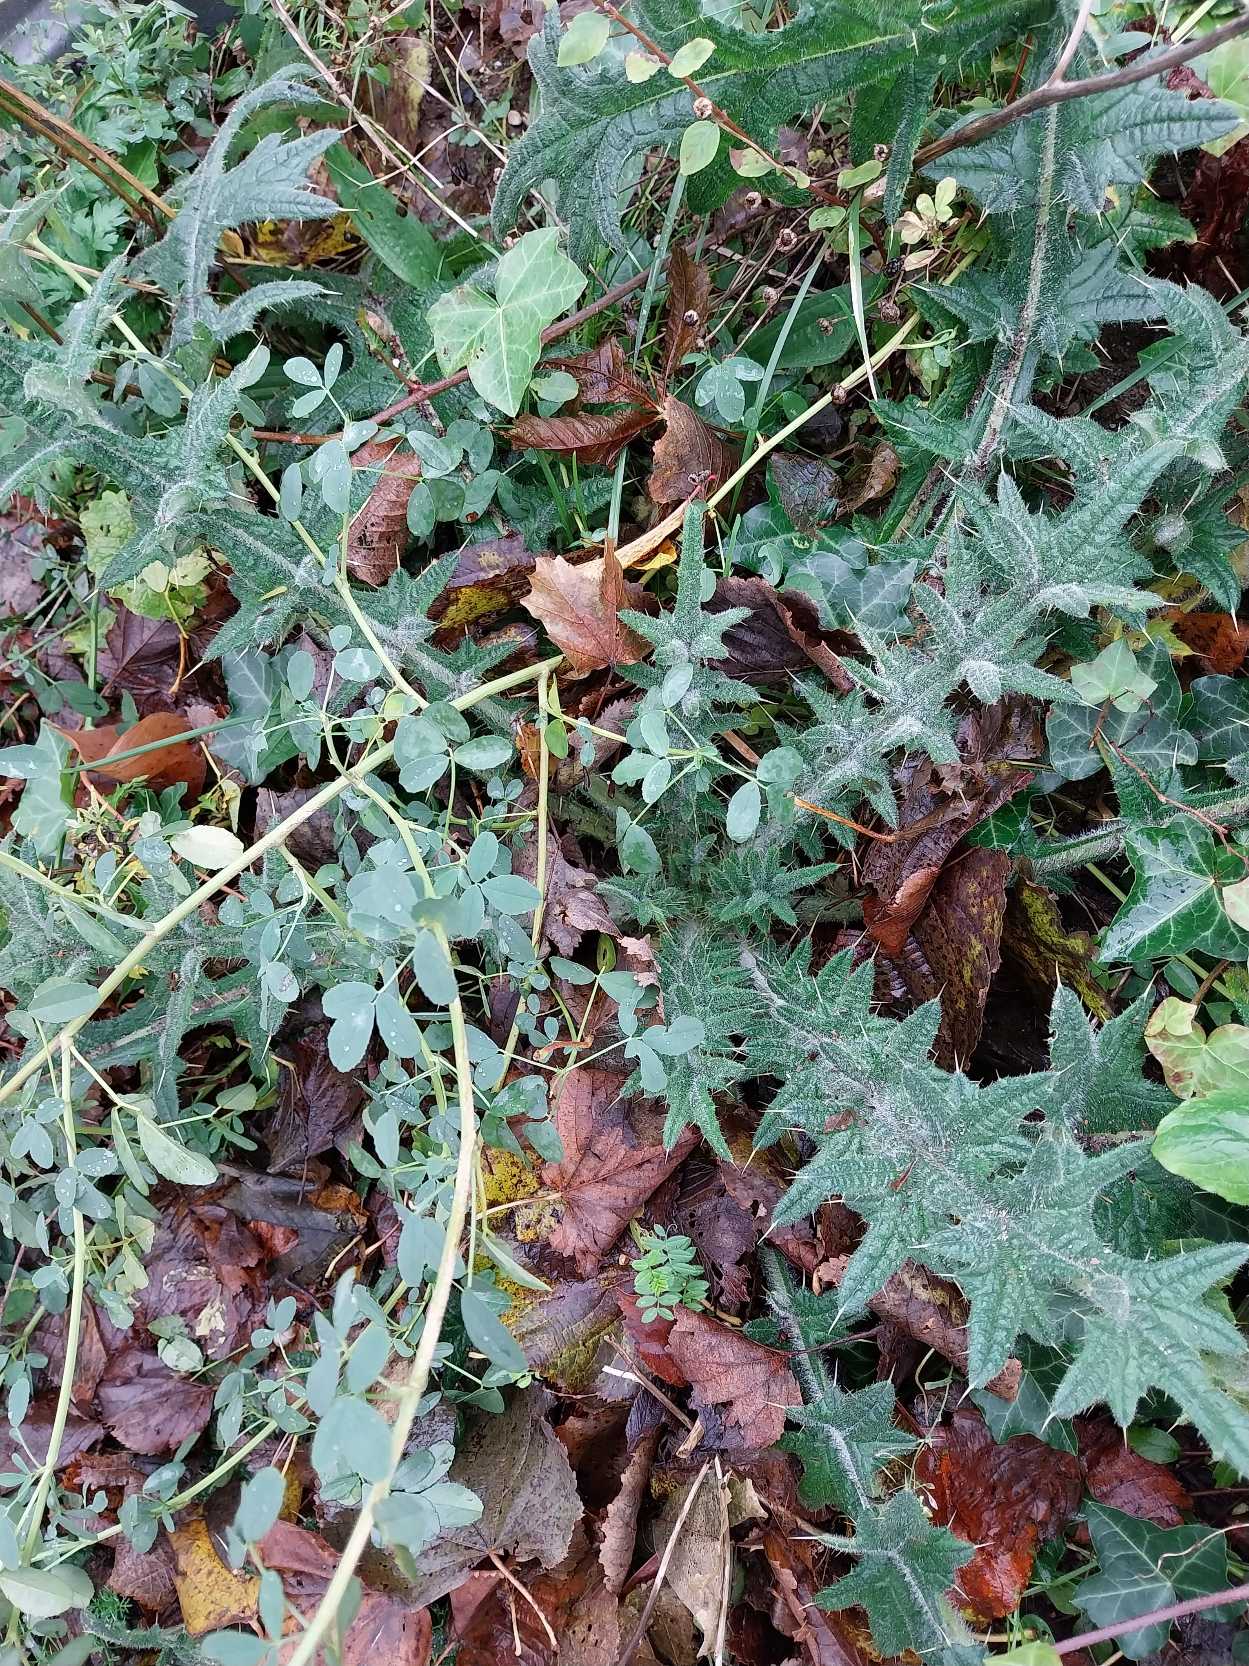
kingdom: Plantae
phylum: Tracheophyta
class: Magnoliopsida
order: Asterales
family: Asteraceae
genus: Cirsium
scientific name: Cirsium vulgare
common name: Horse-tidsel
